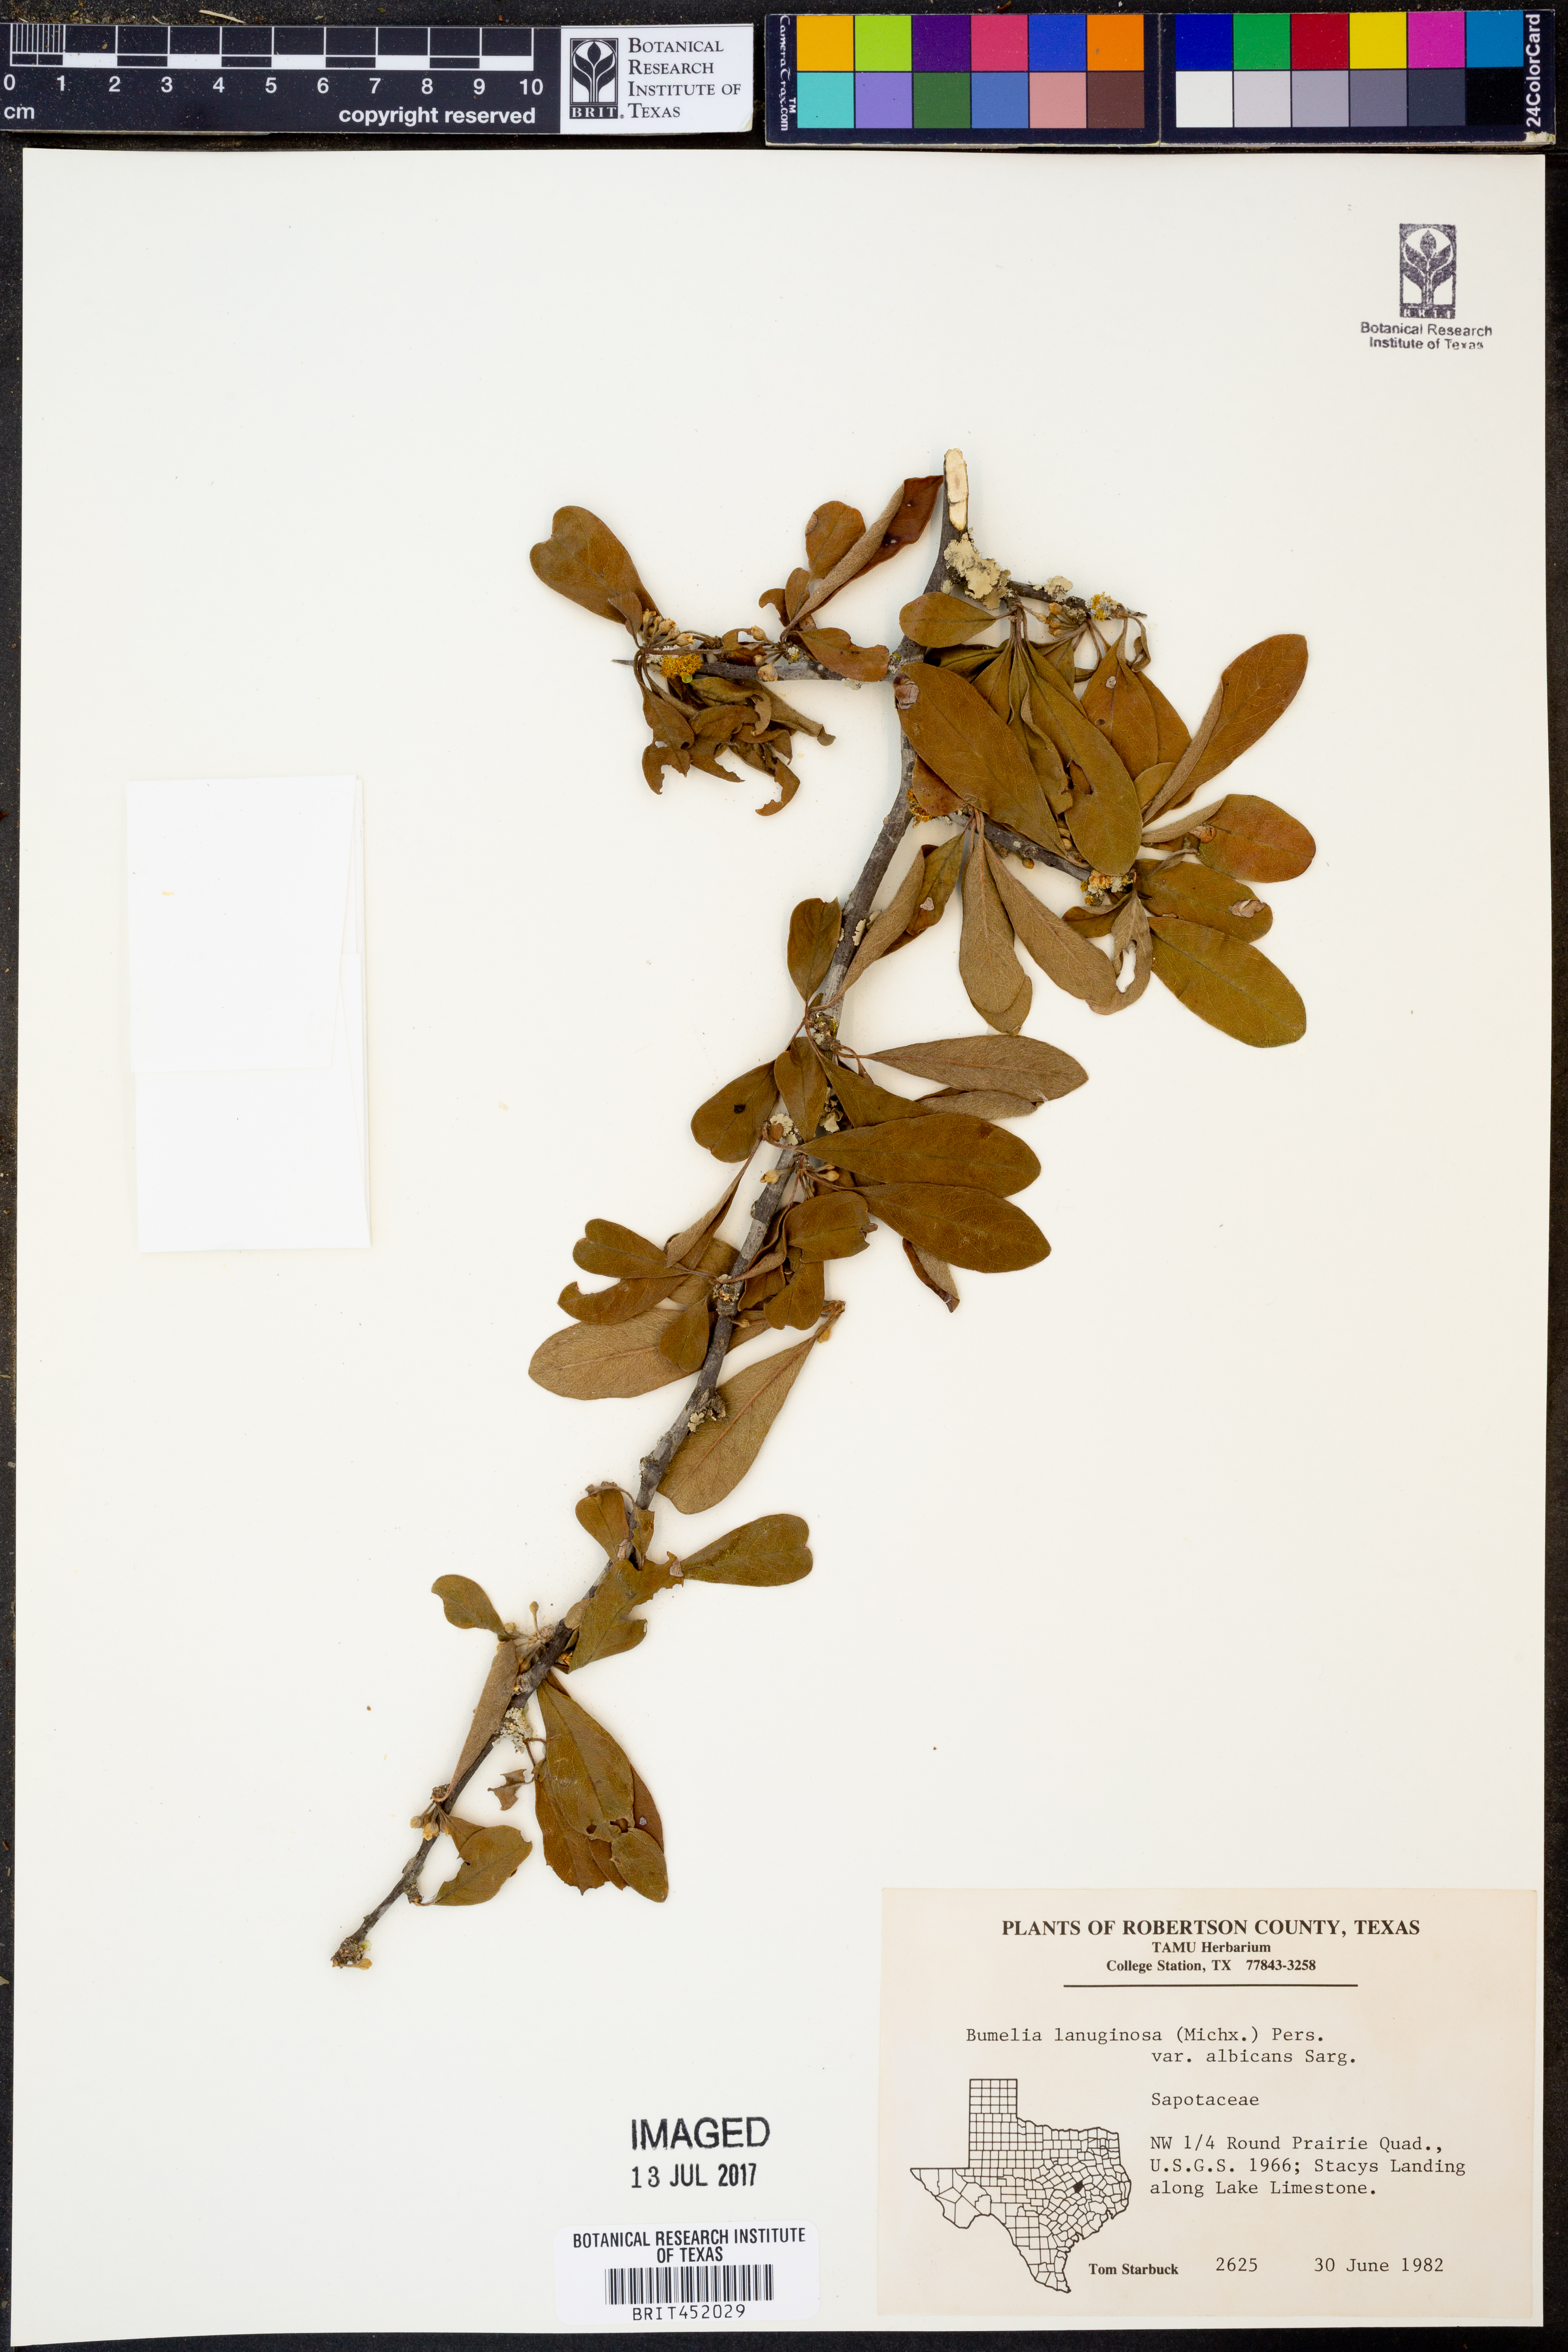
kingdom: Plantae
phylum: Tracheophyta
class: Magnoliopsida
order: Ericales
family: Sapotaceae
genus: Sideroxylon
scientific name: Sideroxylon lanuginosum
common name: Chittamwood
